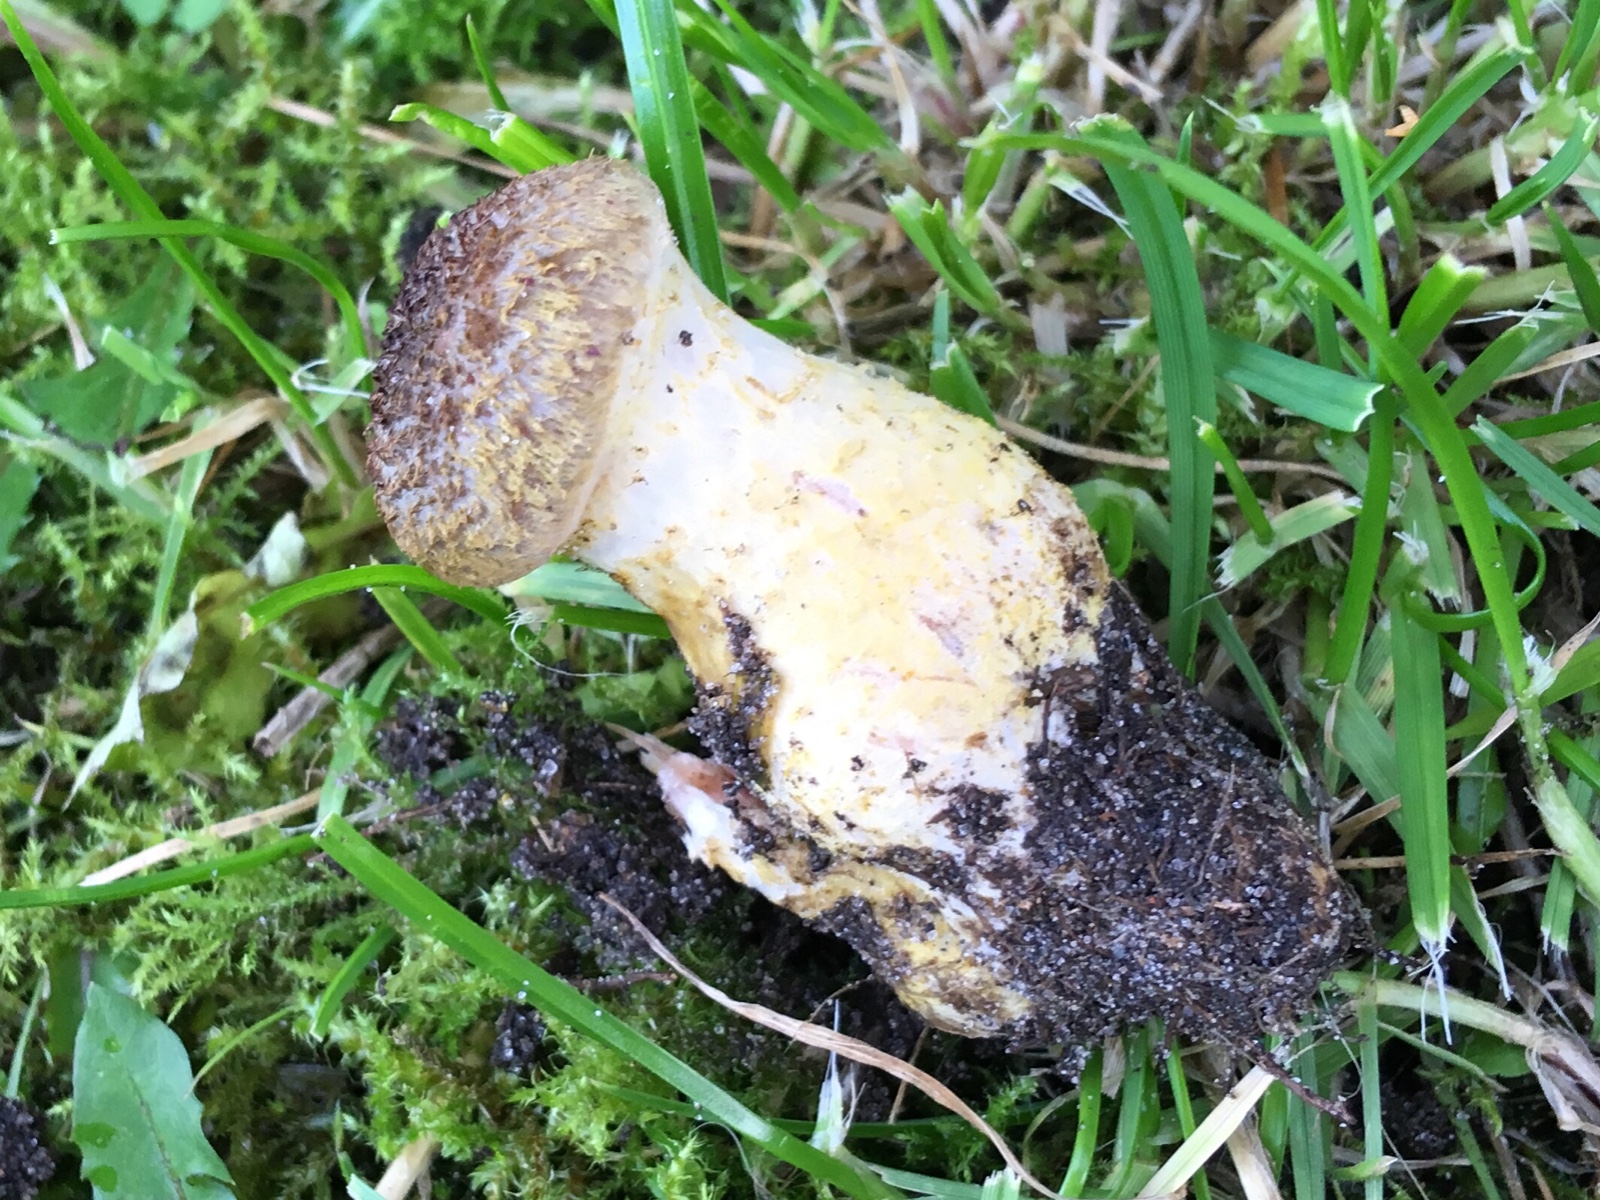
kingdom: Fungi
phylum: Basidiomycota
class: Agaricomycetes
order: Agaricales
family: Physalacriaceae
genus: Armillaria
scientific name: Armillaria lutea
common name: køllestokket honningsvamp
